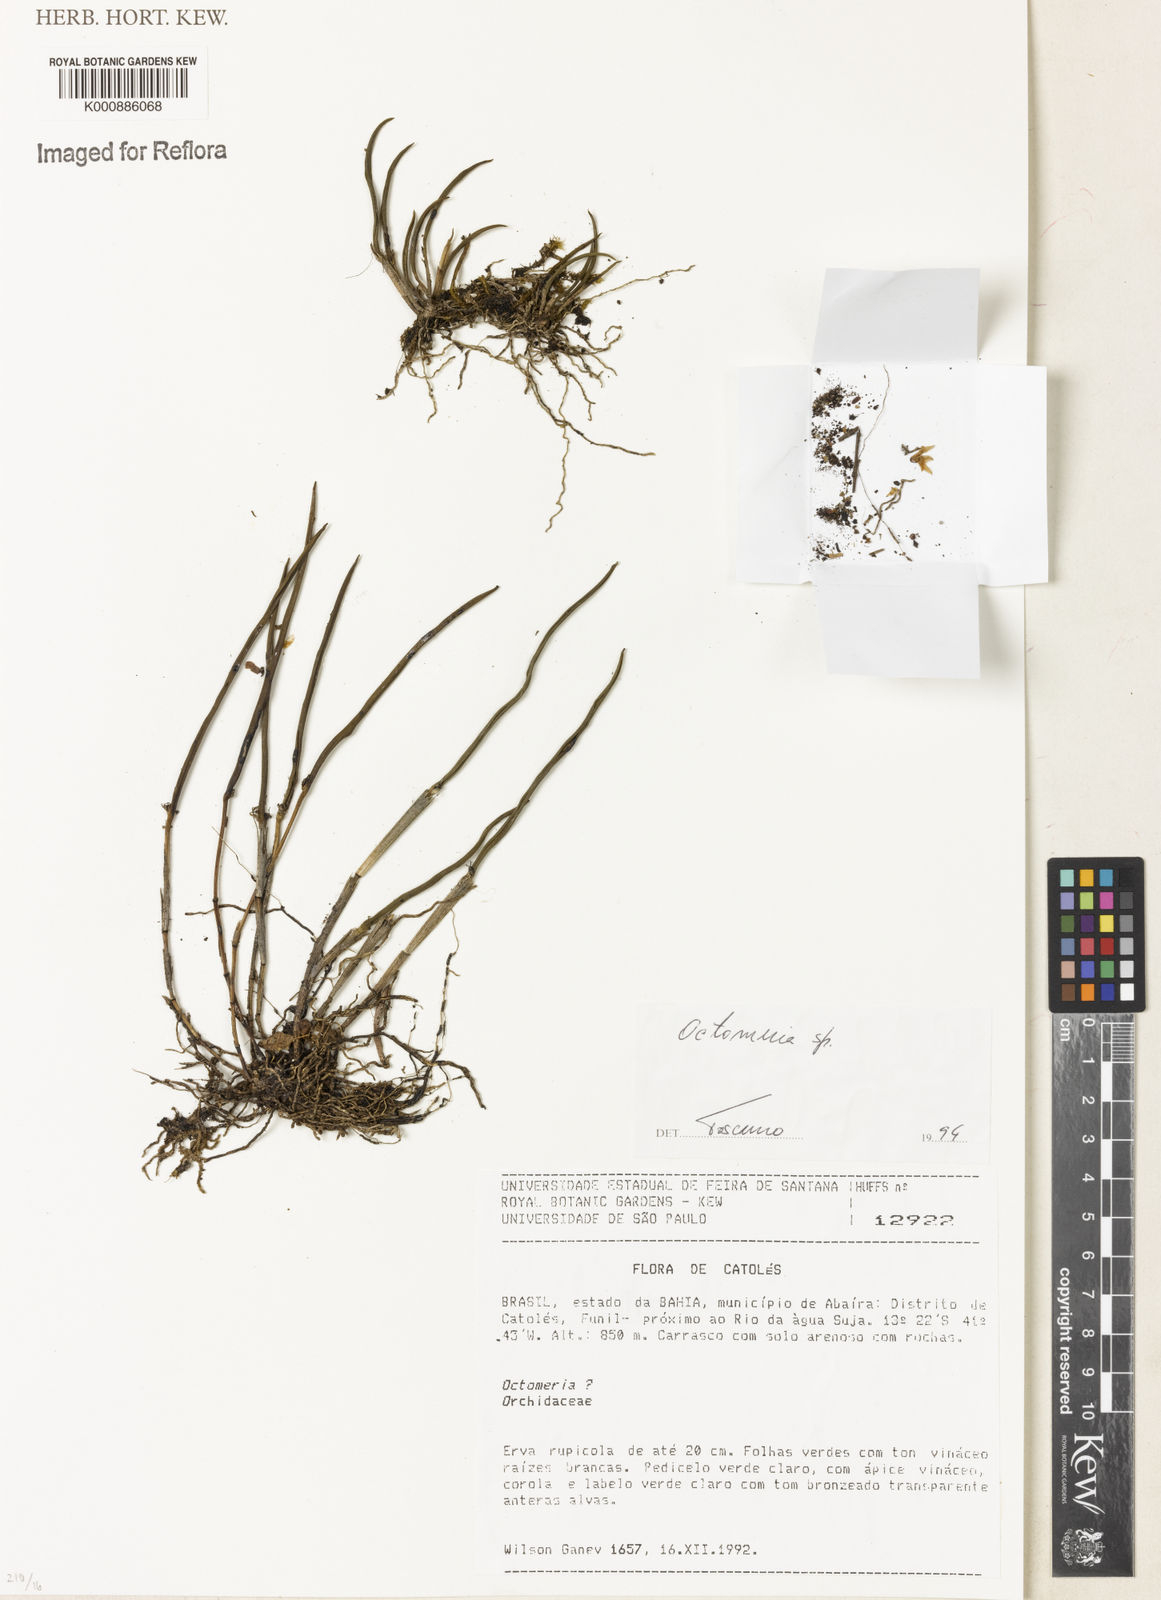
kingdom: Plantae
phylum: Tracheophyta
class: Liliopsida
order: Asparagales
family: Orchidaceae
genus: Octomeria
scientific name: Octomeria
